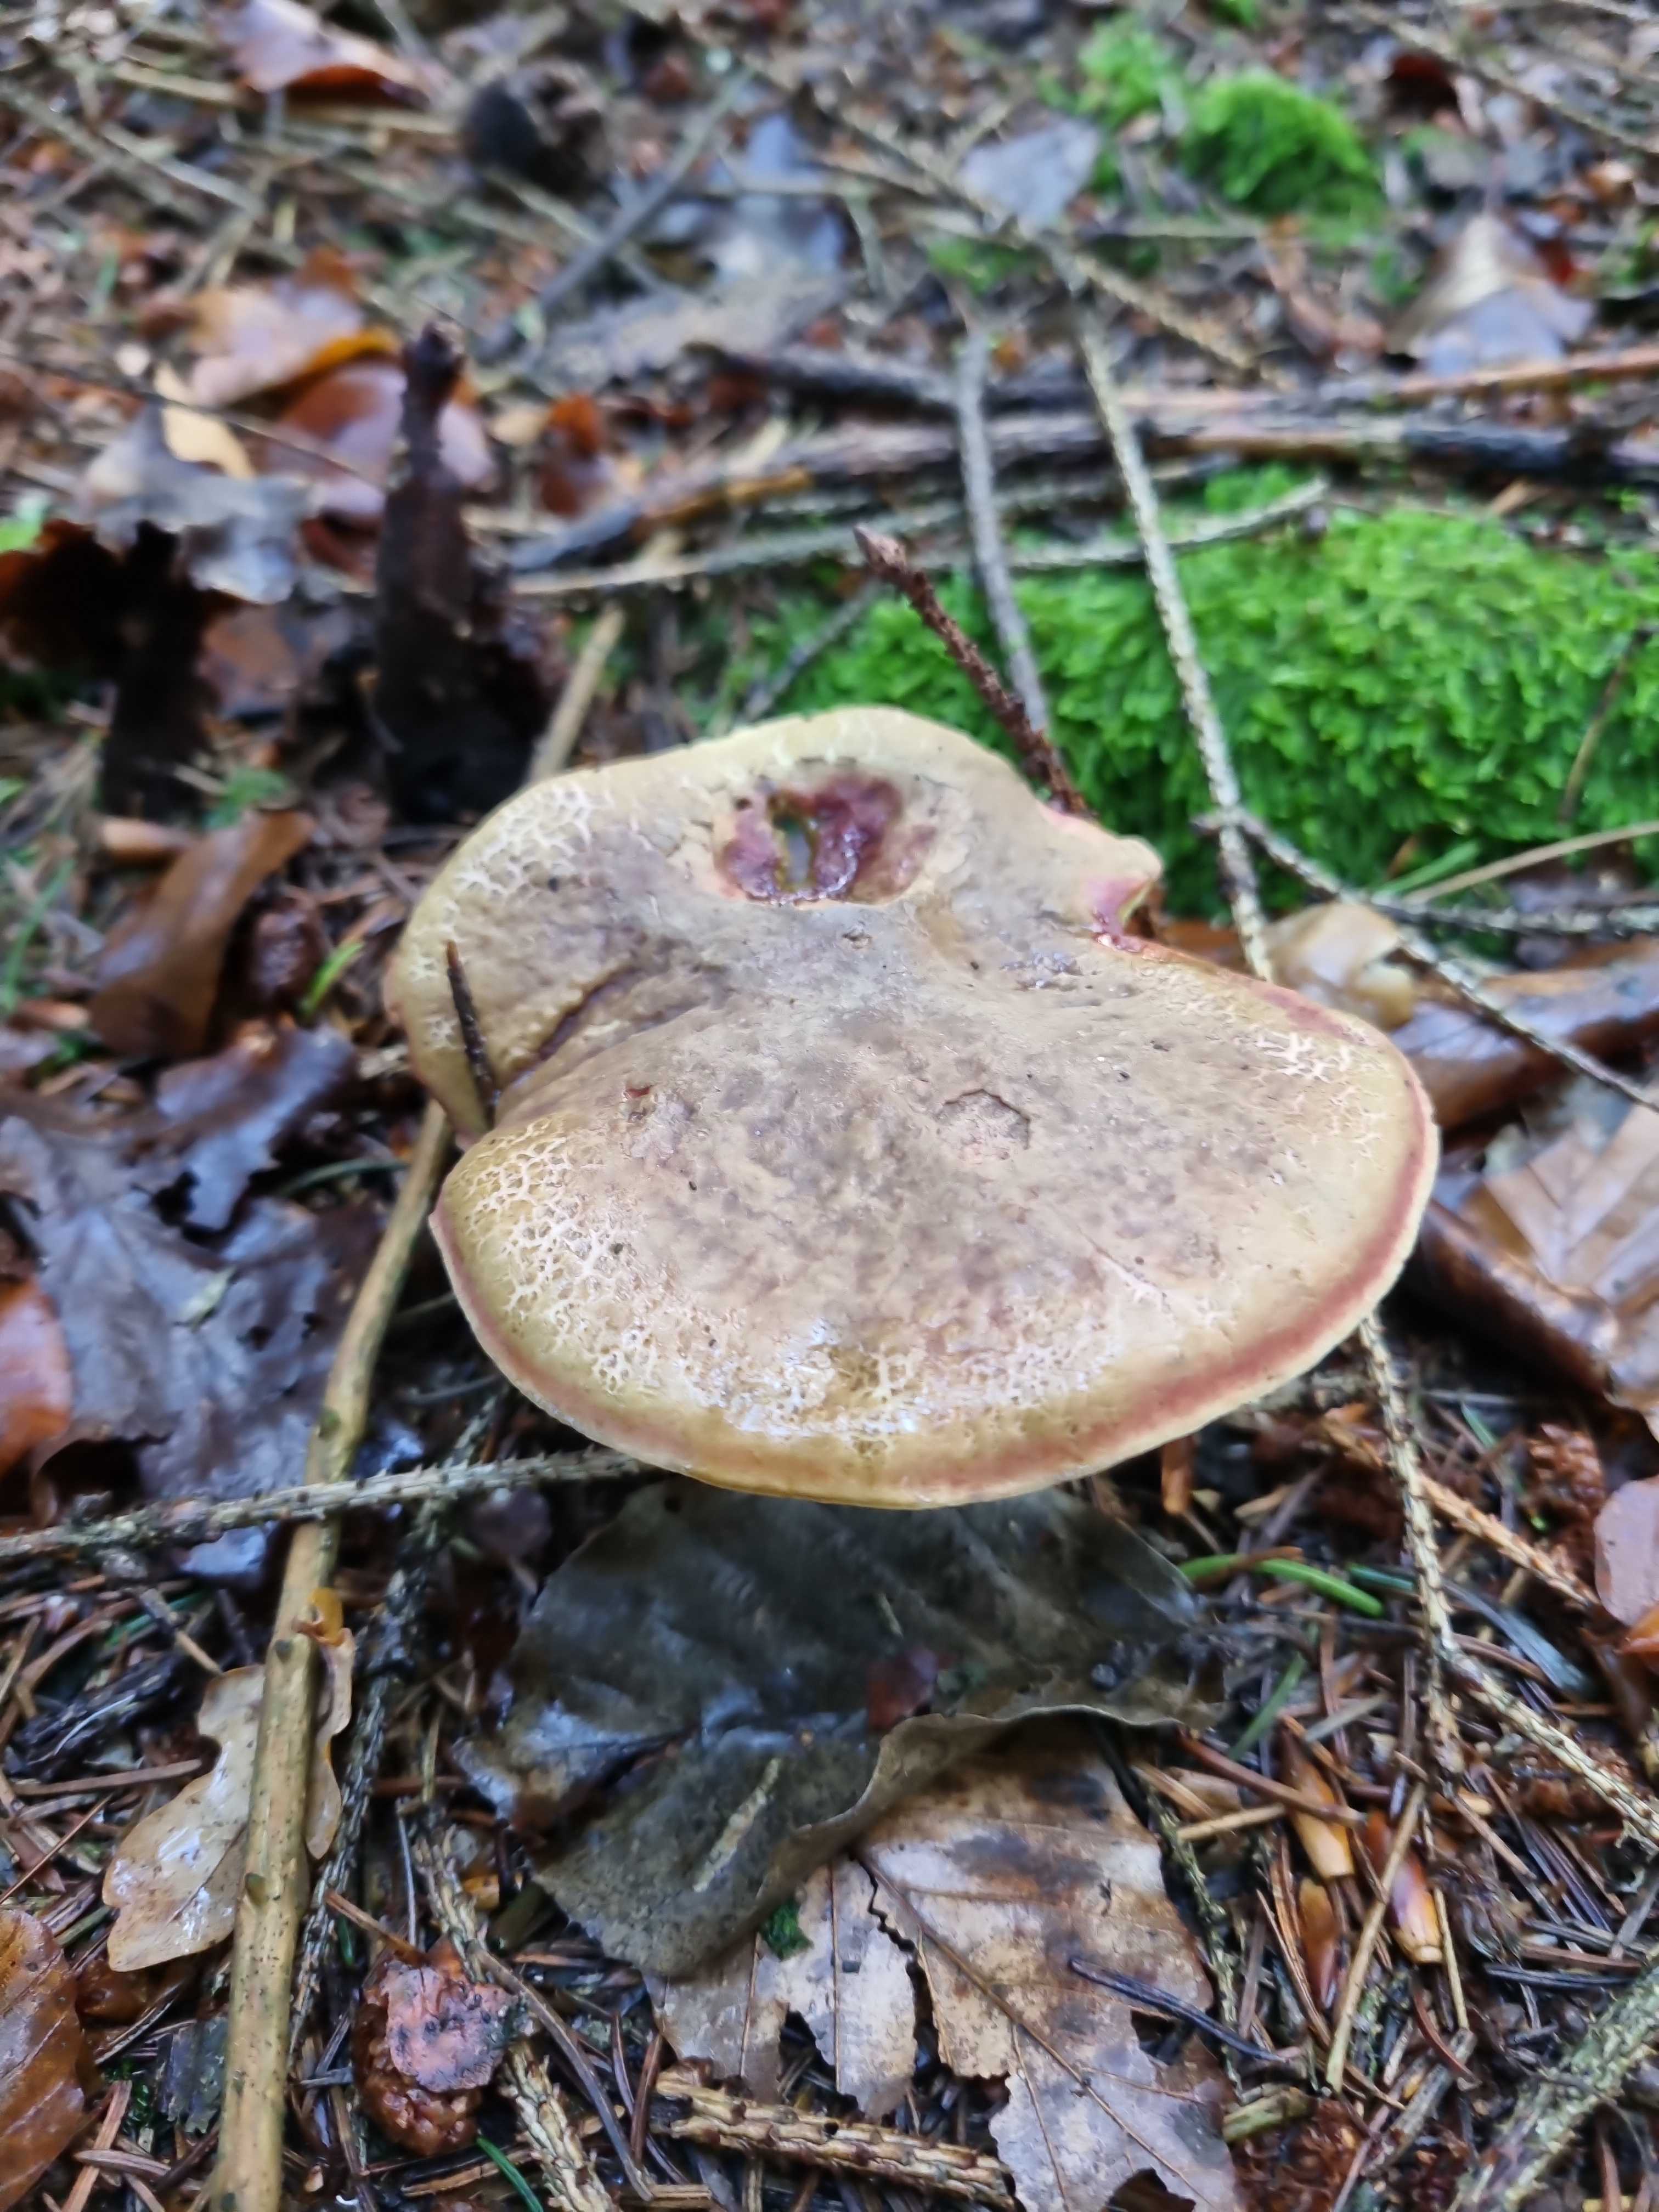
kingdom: Fungi
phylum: Basidiomycota
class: Agaricomycetes
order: Boletales
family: Boletaceae
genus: Xerocomellus
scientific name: Xerocomellus chrysenteron
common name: rødsprukken rørhat
